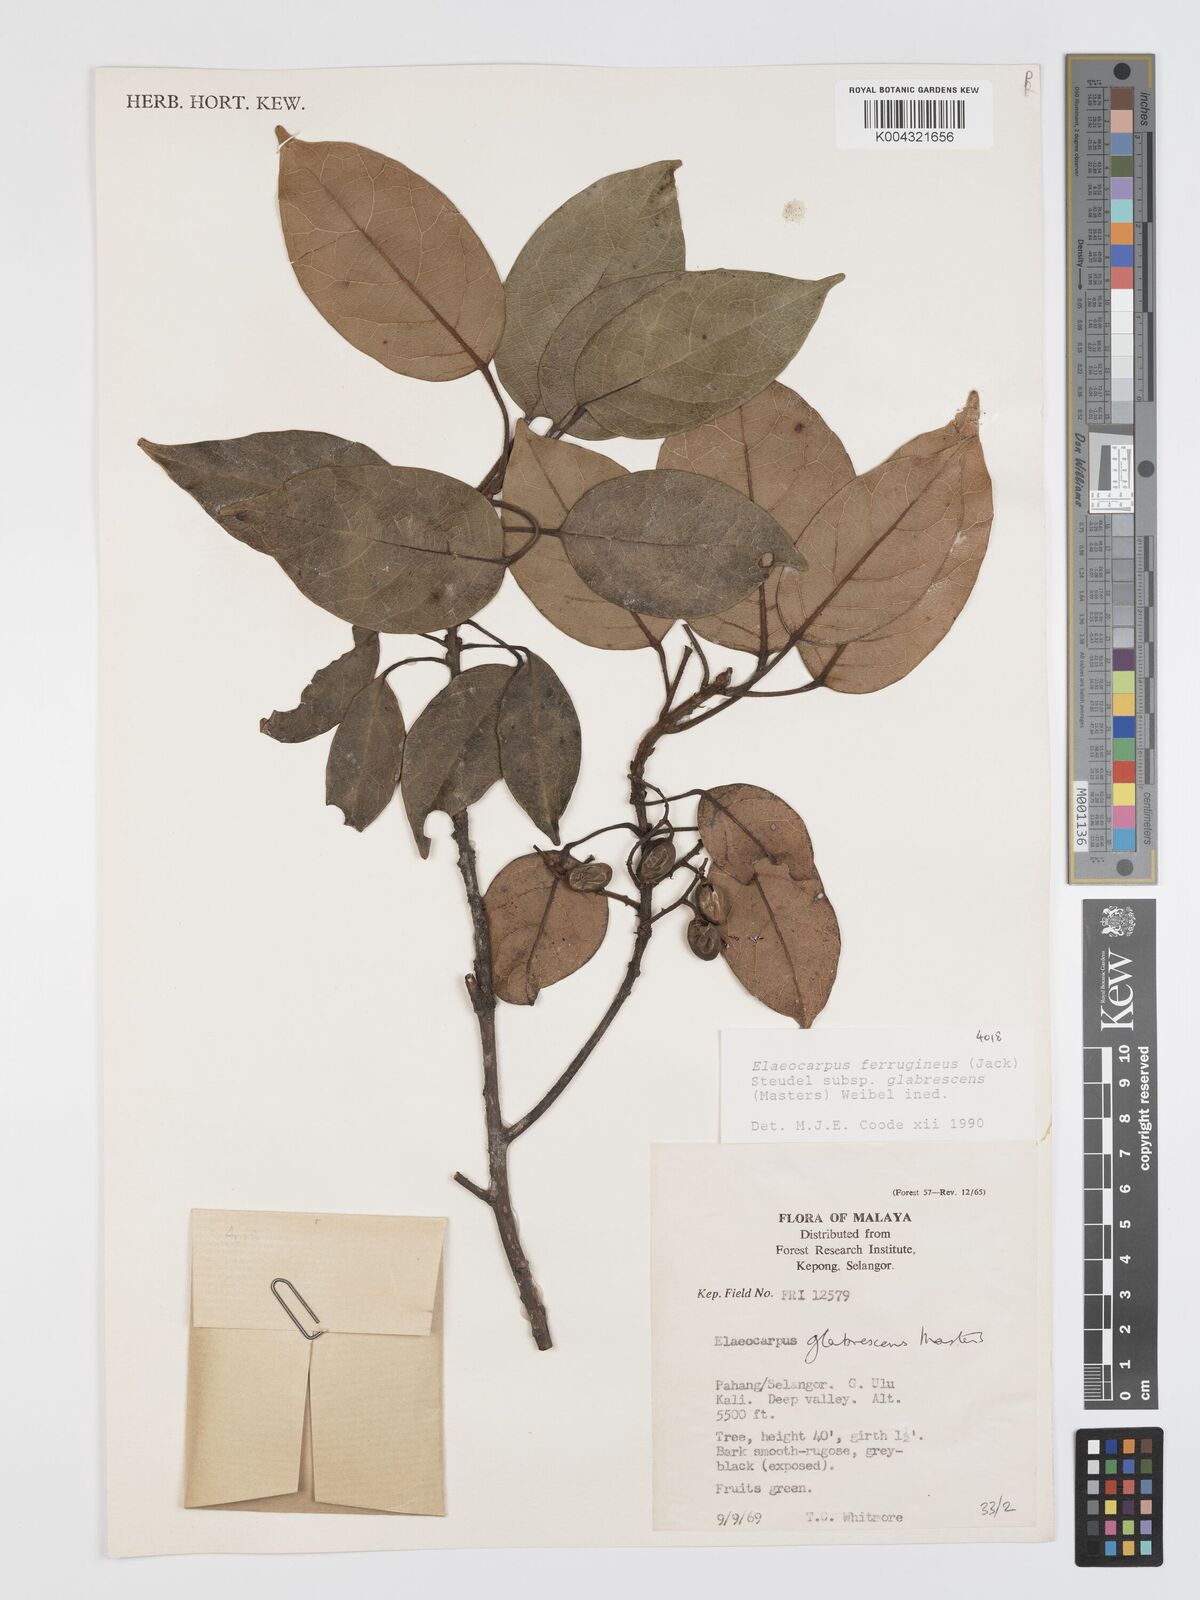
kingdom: Plantae
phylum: Tracheophyta
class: Magnoliopsida
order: Oxalidales
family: Elaeocarpaceae
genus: Elaeocarpus
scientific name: Elaeocarpus ferrugineus
